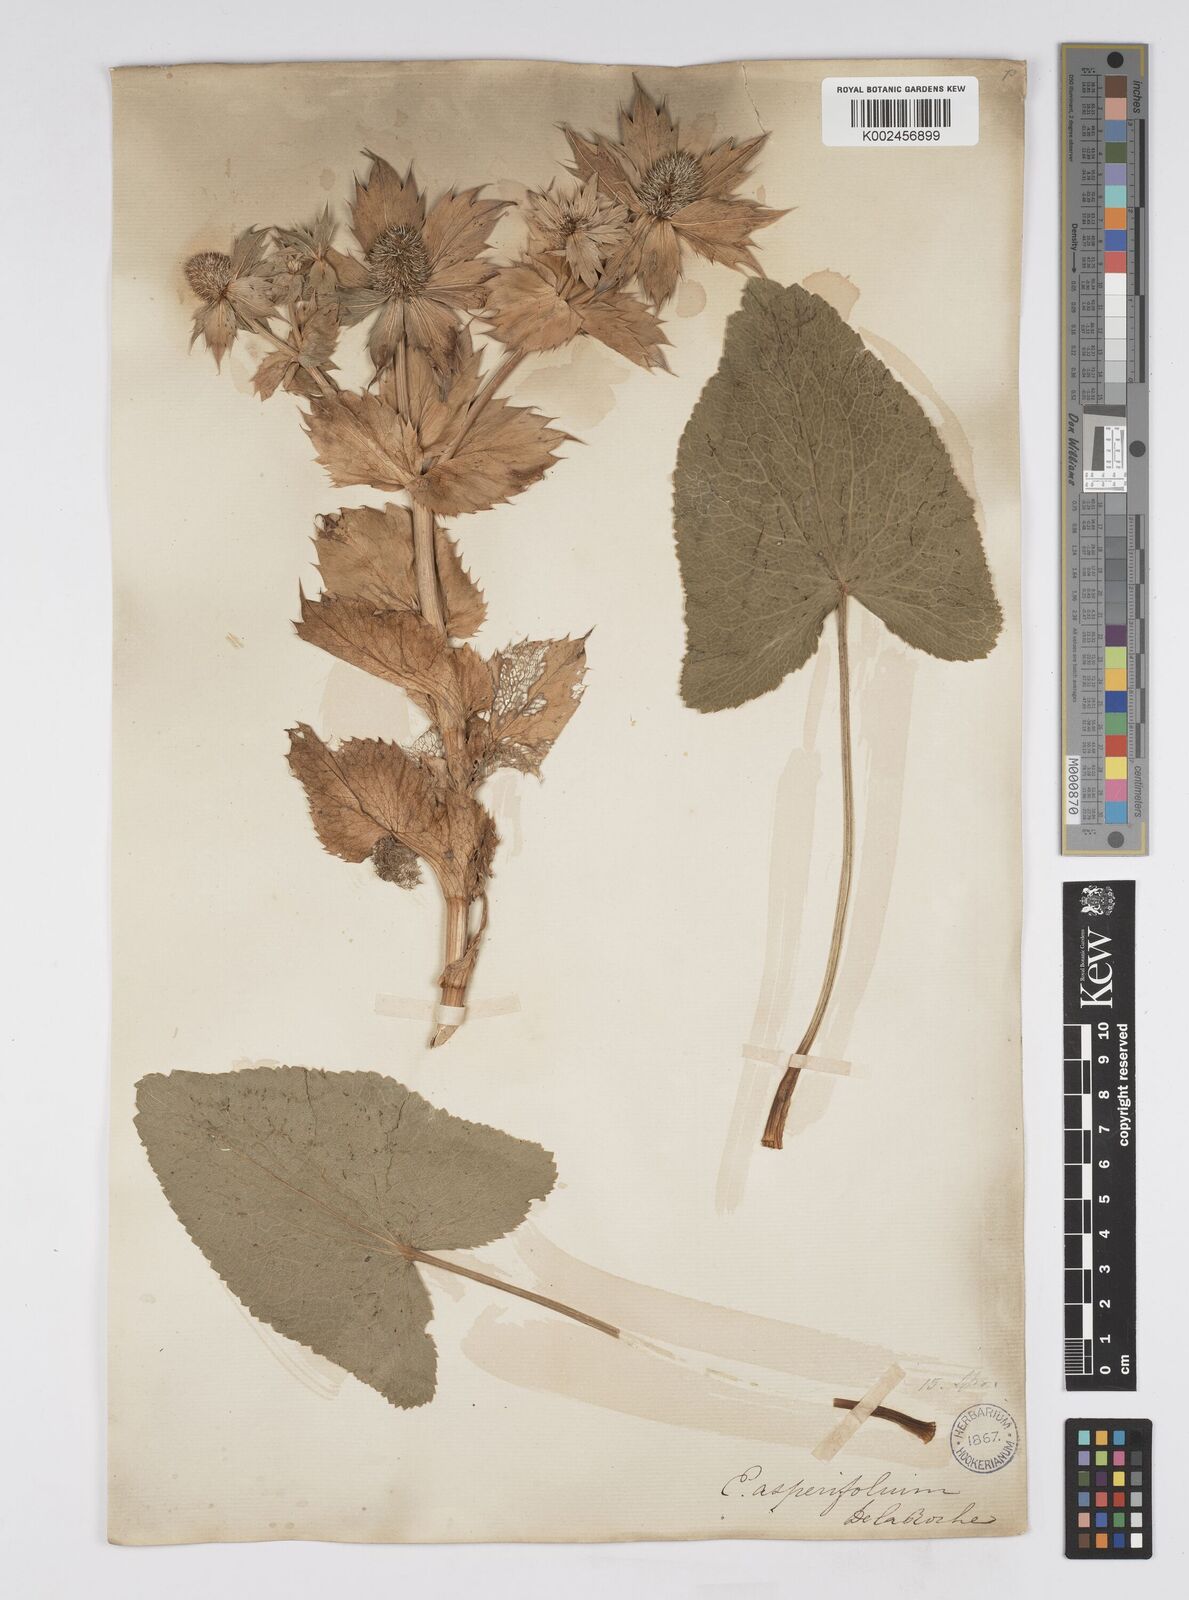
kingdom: Plantae
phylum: Tracheophyta
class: Magnoliopsida
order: Apiales
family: Apiaceae
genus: Eryngium
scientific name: Eryngium giganteum
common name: Tall eryngo
